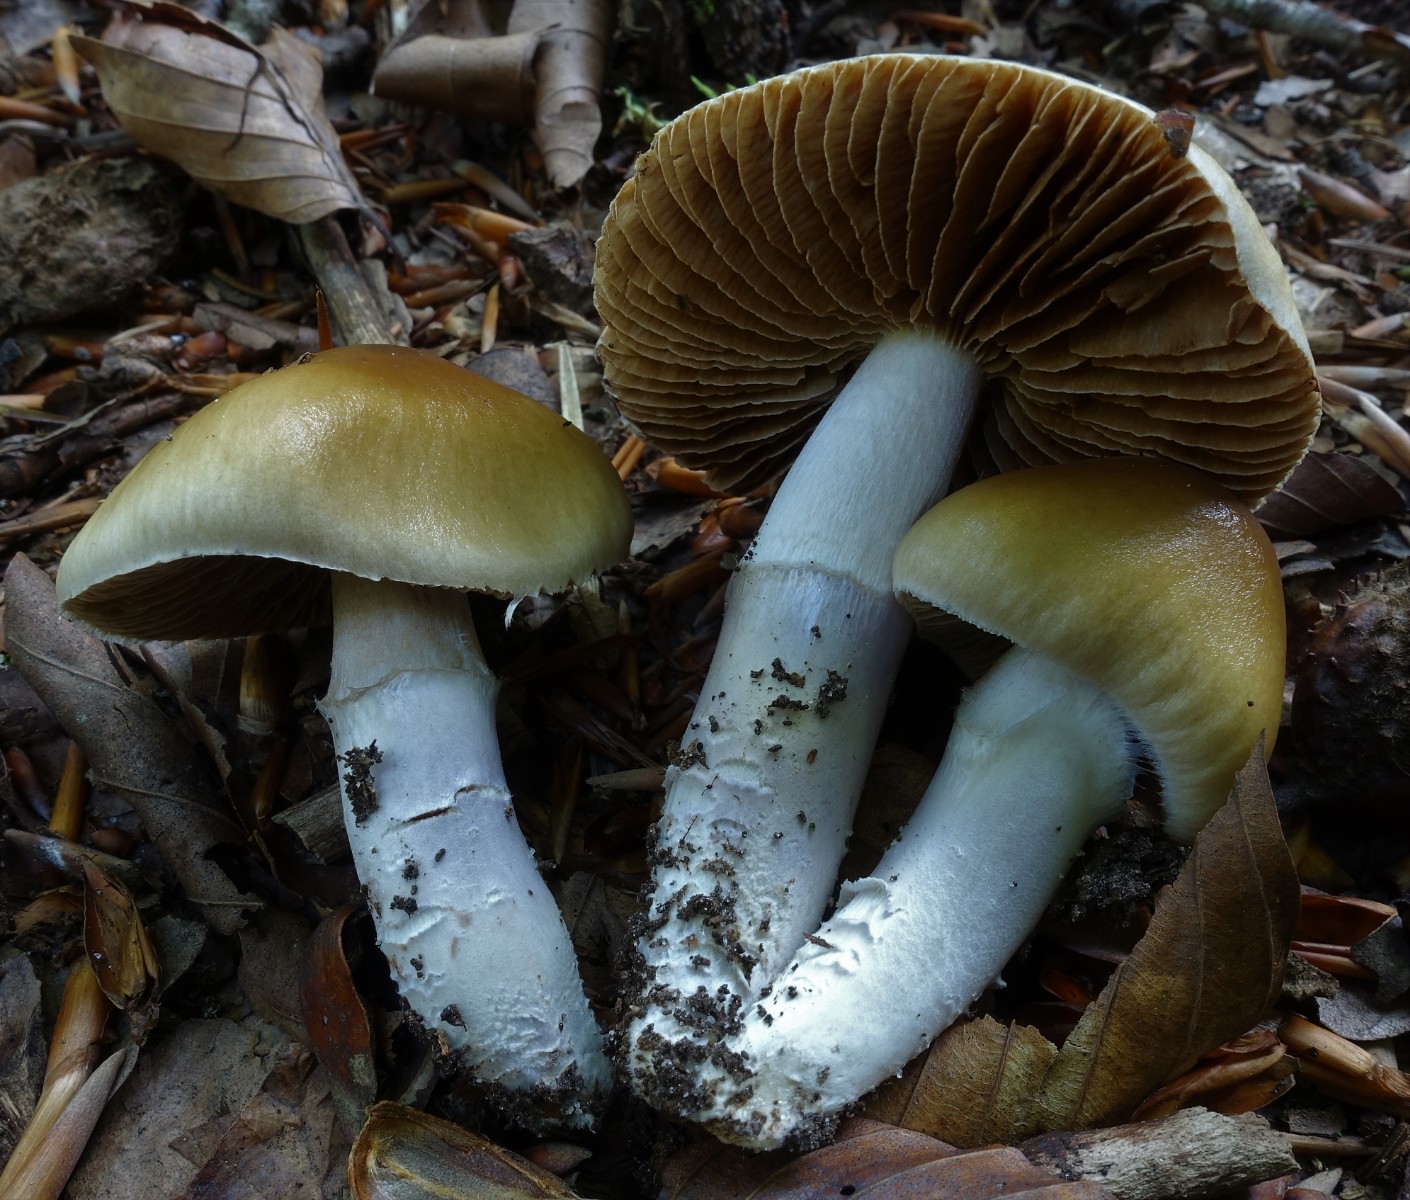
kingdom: Fungi
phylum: Basidiomycota
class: Agaricomycetes
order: Agaricales
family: Cortinariaceae
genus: Cortinarius
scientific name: Cortinarius elatior
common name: høj slørhat
